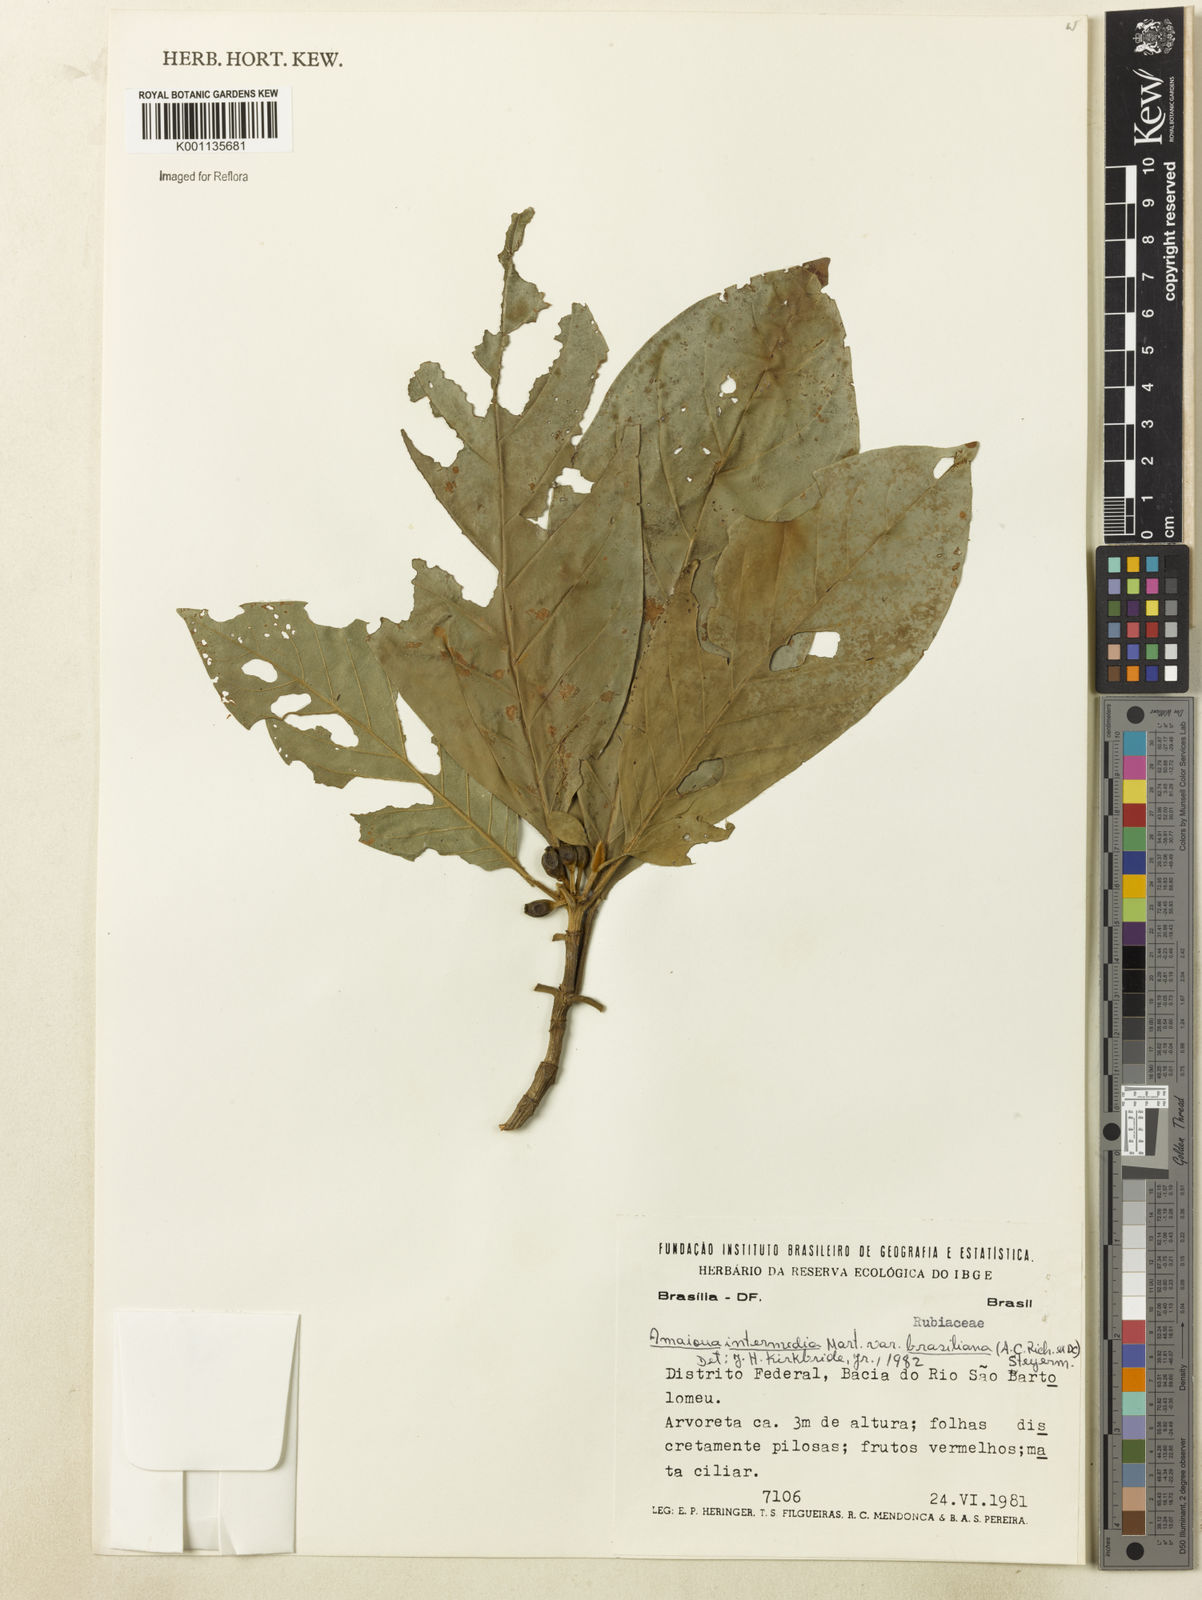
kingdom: Plantae
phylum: Tracheophyta
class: Magnoliopsida
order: Gentianales
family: Rubiaceae
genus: Amaioua
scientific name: Amaioua guianensis
